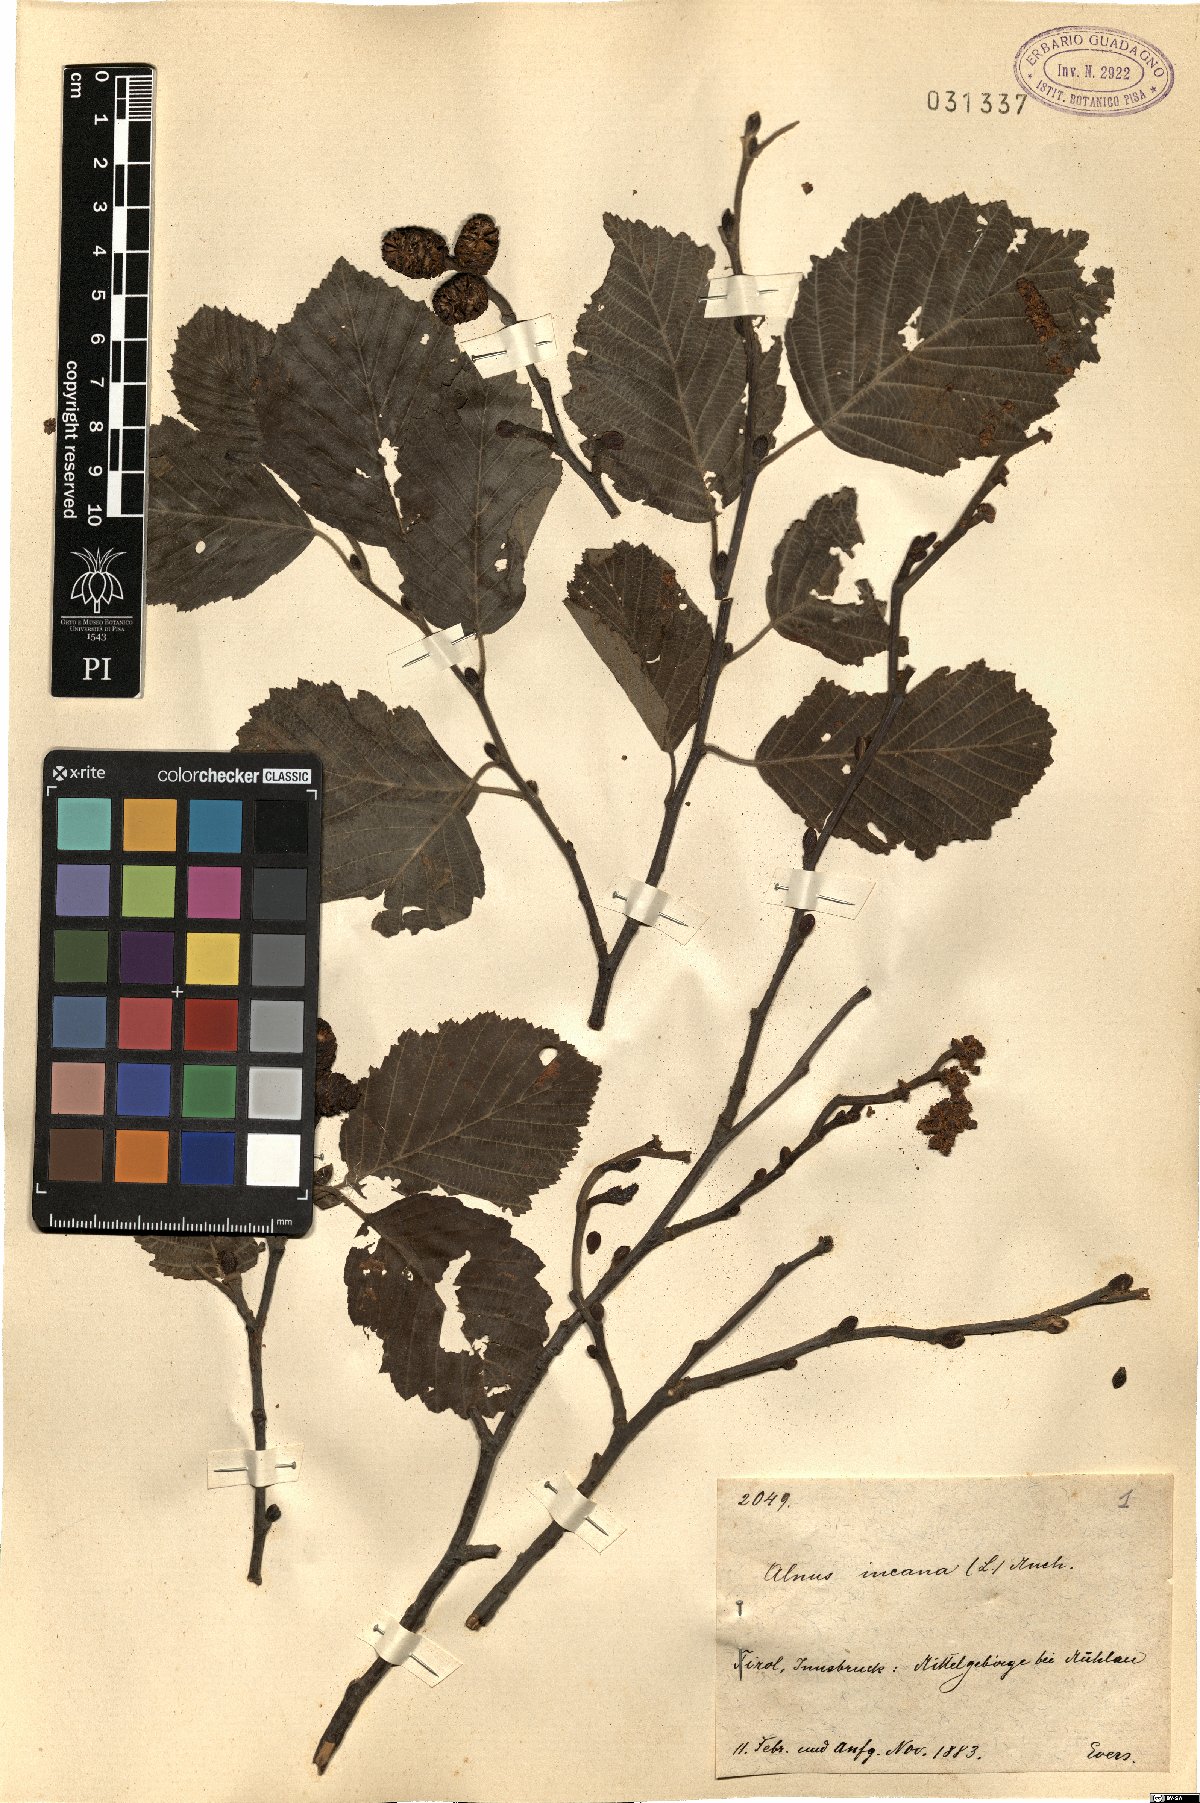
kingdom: Plantae
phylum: Tracheophyta
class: Magnoliopsida
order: Fagales
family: Betulaceae
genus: Alnus
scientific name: Alnus incana
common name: Grey alder
